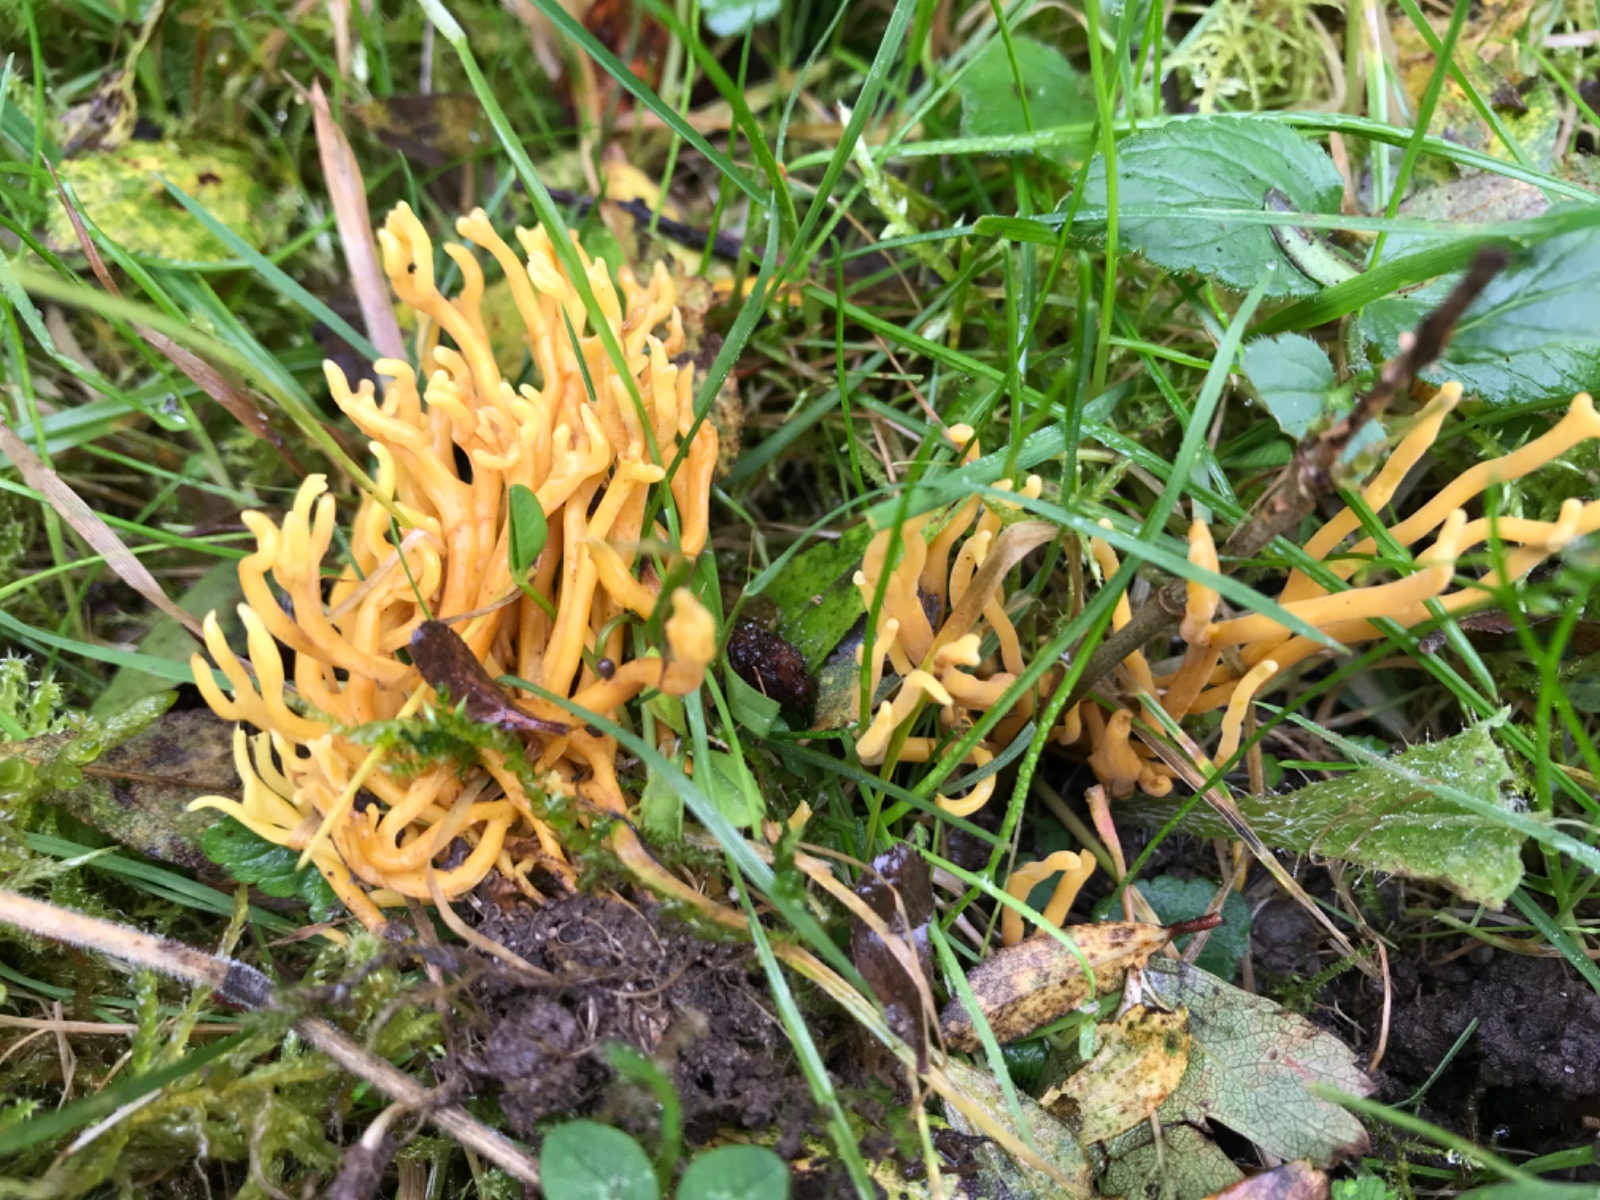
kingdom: Fungi
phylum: Basidiomycota
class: Agaricomycetes
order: Agaricales
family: Clavariaceae
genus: Clavulinopsis
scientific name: Clavulinopsis corniculata
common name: eng-køllesvamp
